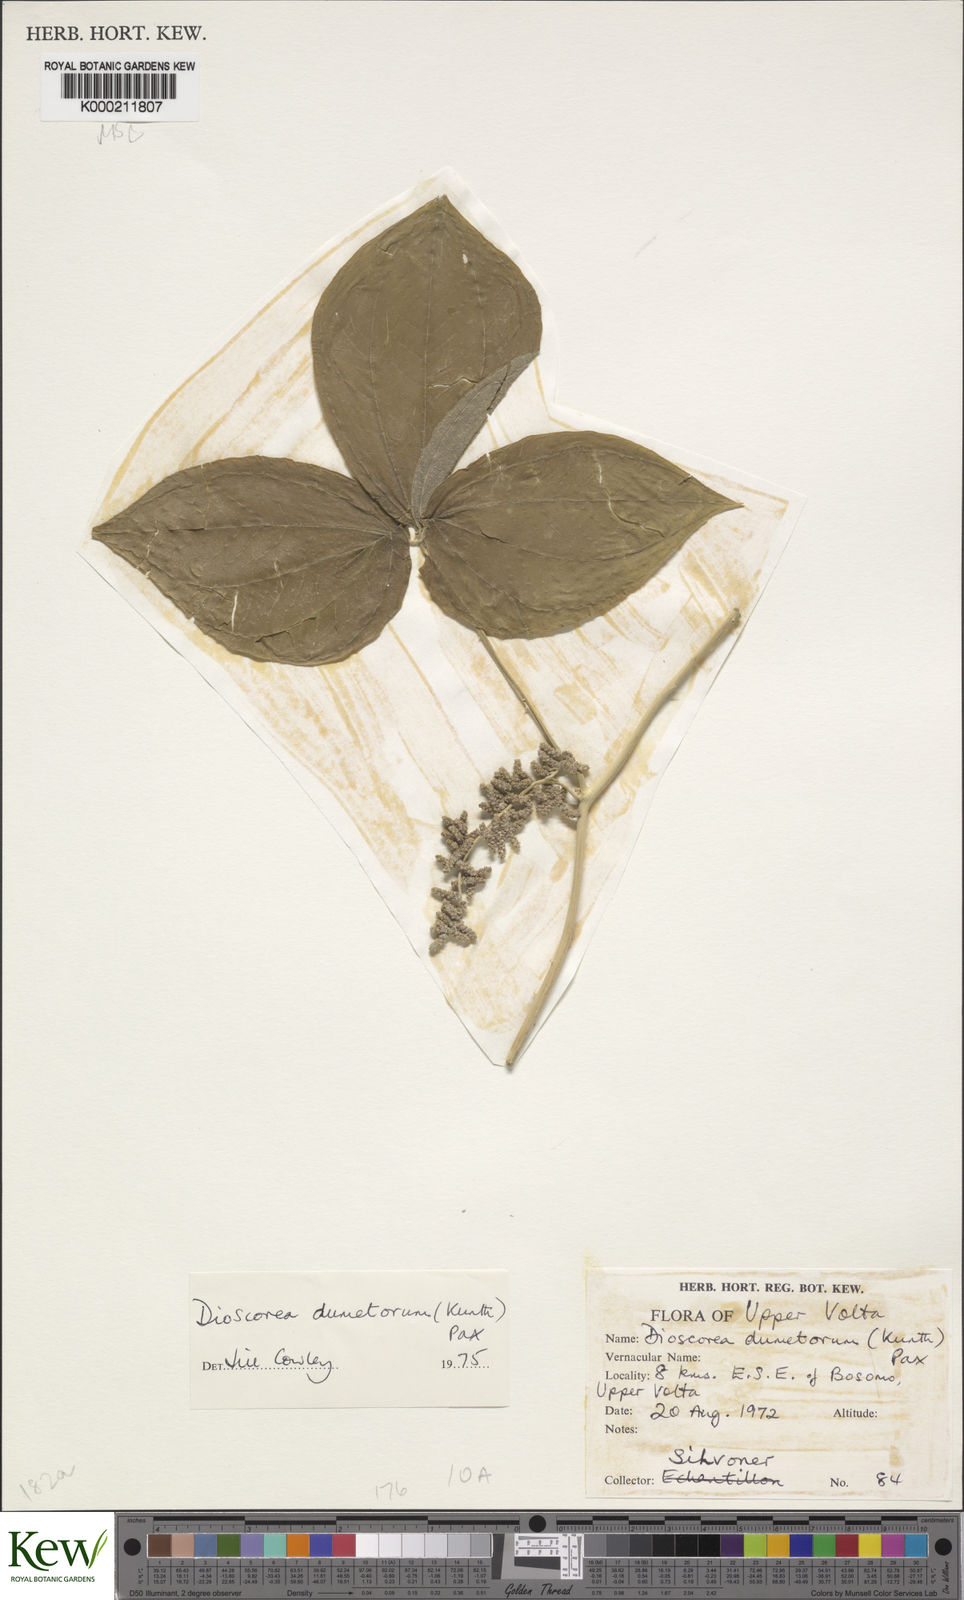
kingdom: Plantae
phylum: Tracheophyta
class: Liliopsida
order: Dioscoreales
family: Dioscoreaceae
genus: Dioscorea
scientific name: Dioscorea dumetorum
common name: African bitter yam
